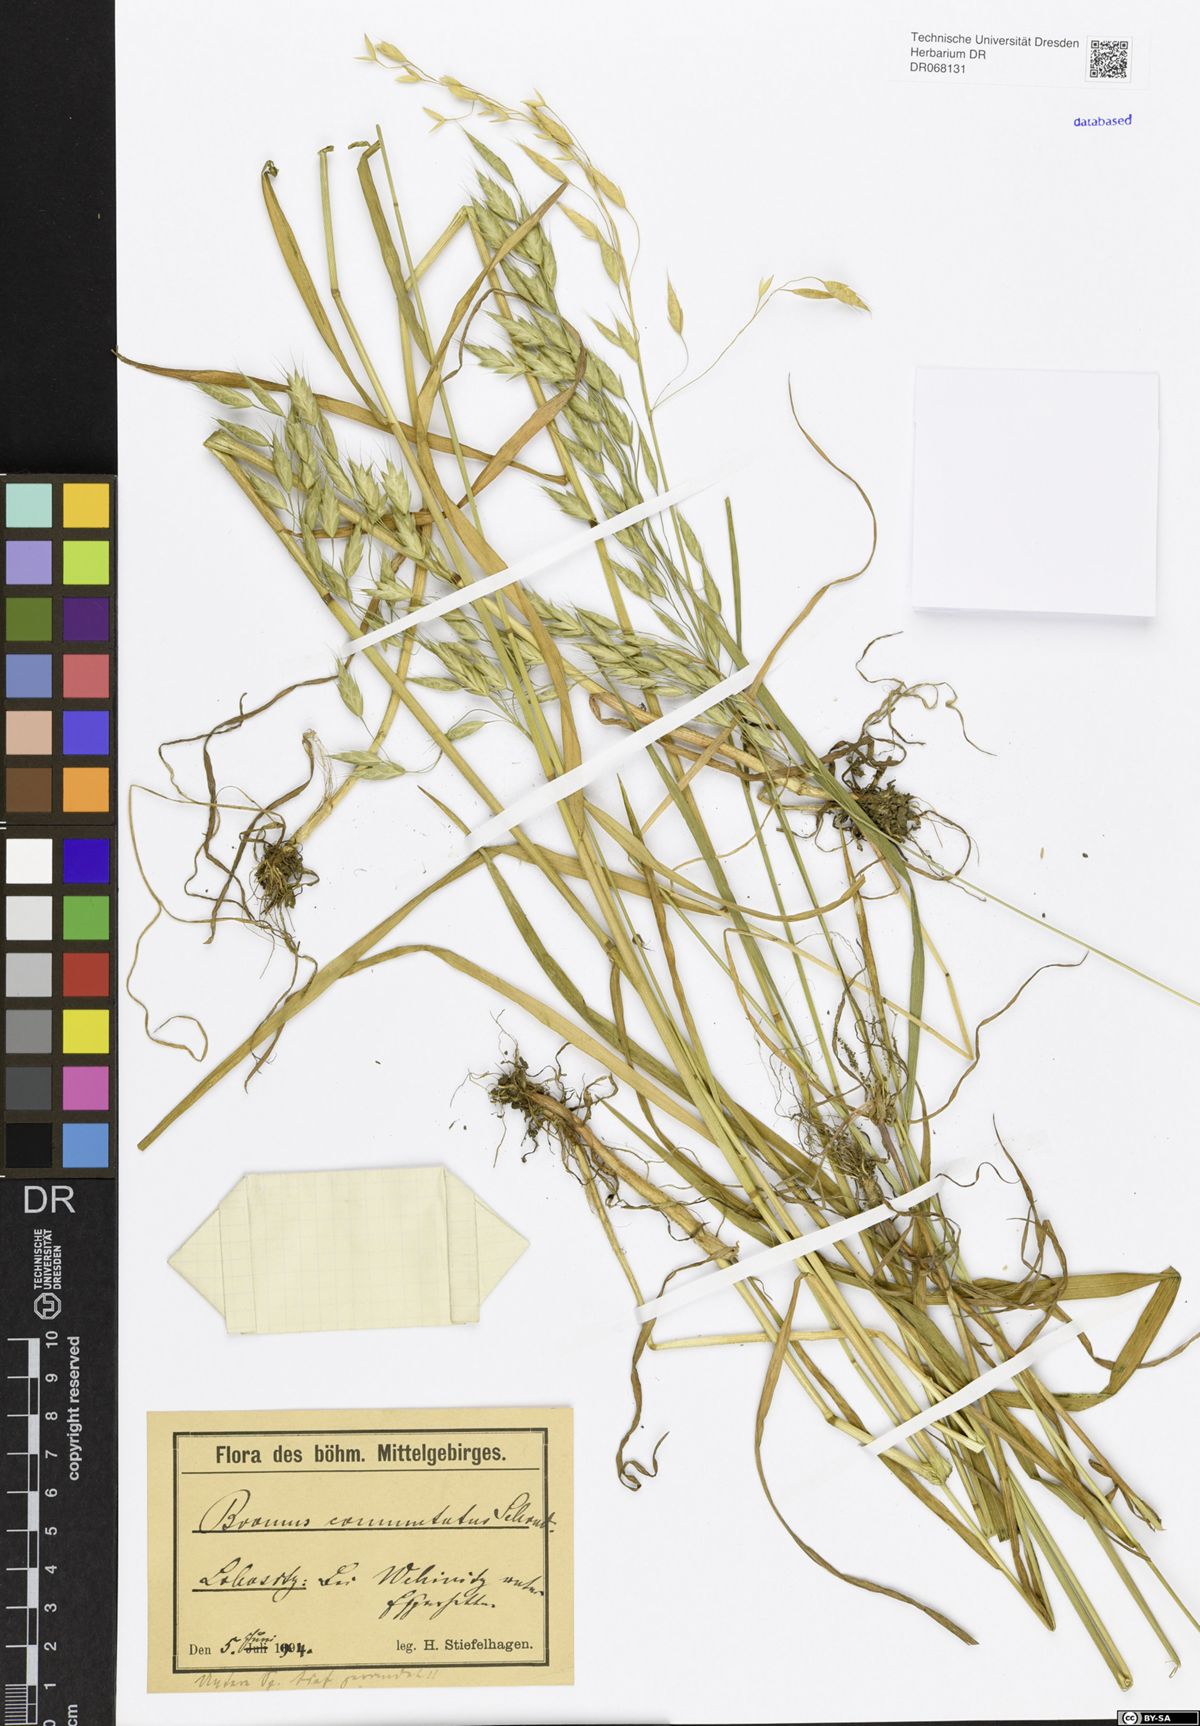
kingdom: Plantae
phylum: Tracheophyta
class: Liliopsida
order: Poales
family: Poaceae
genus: Bromus
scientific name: Bromus commutatus
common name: Meadow brome
